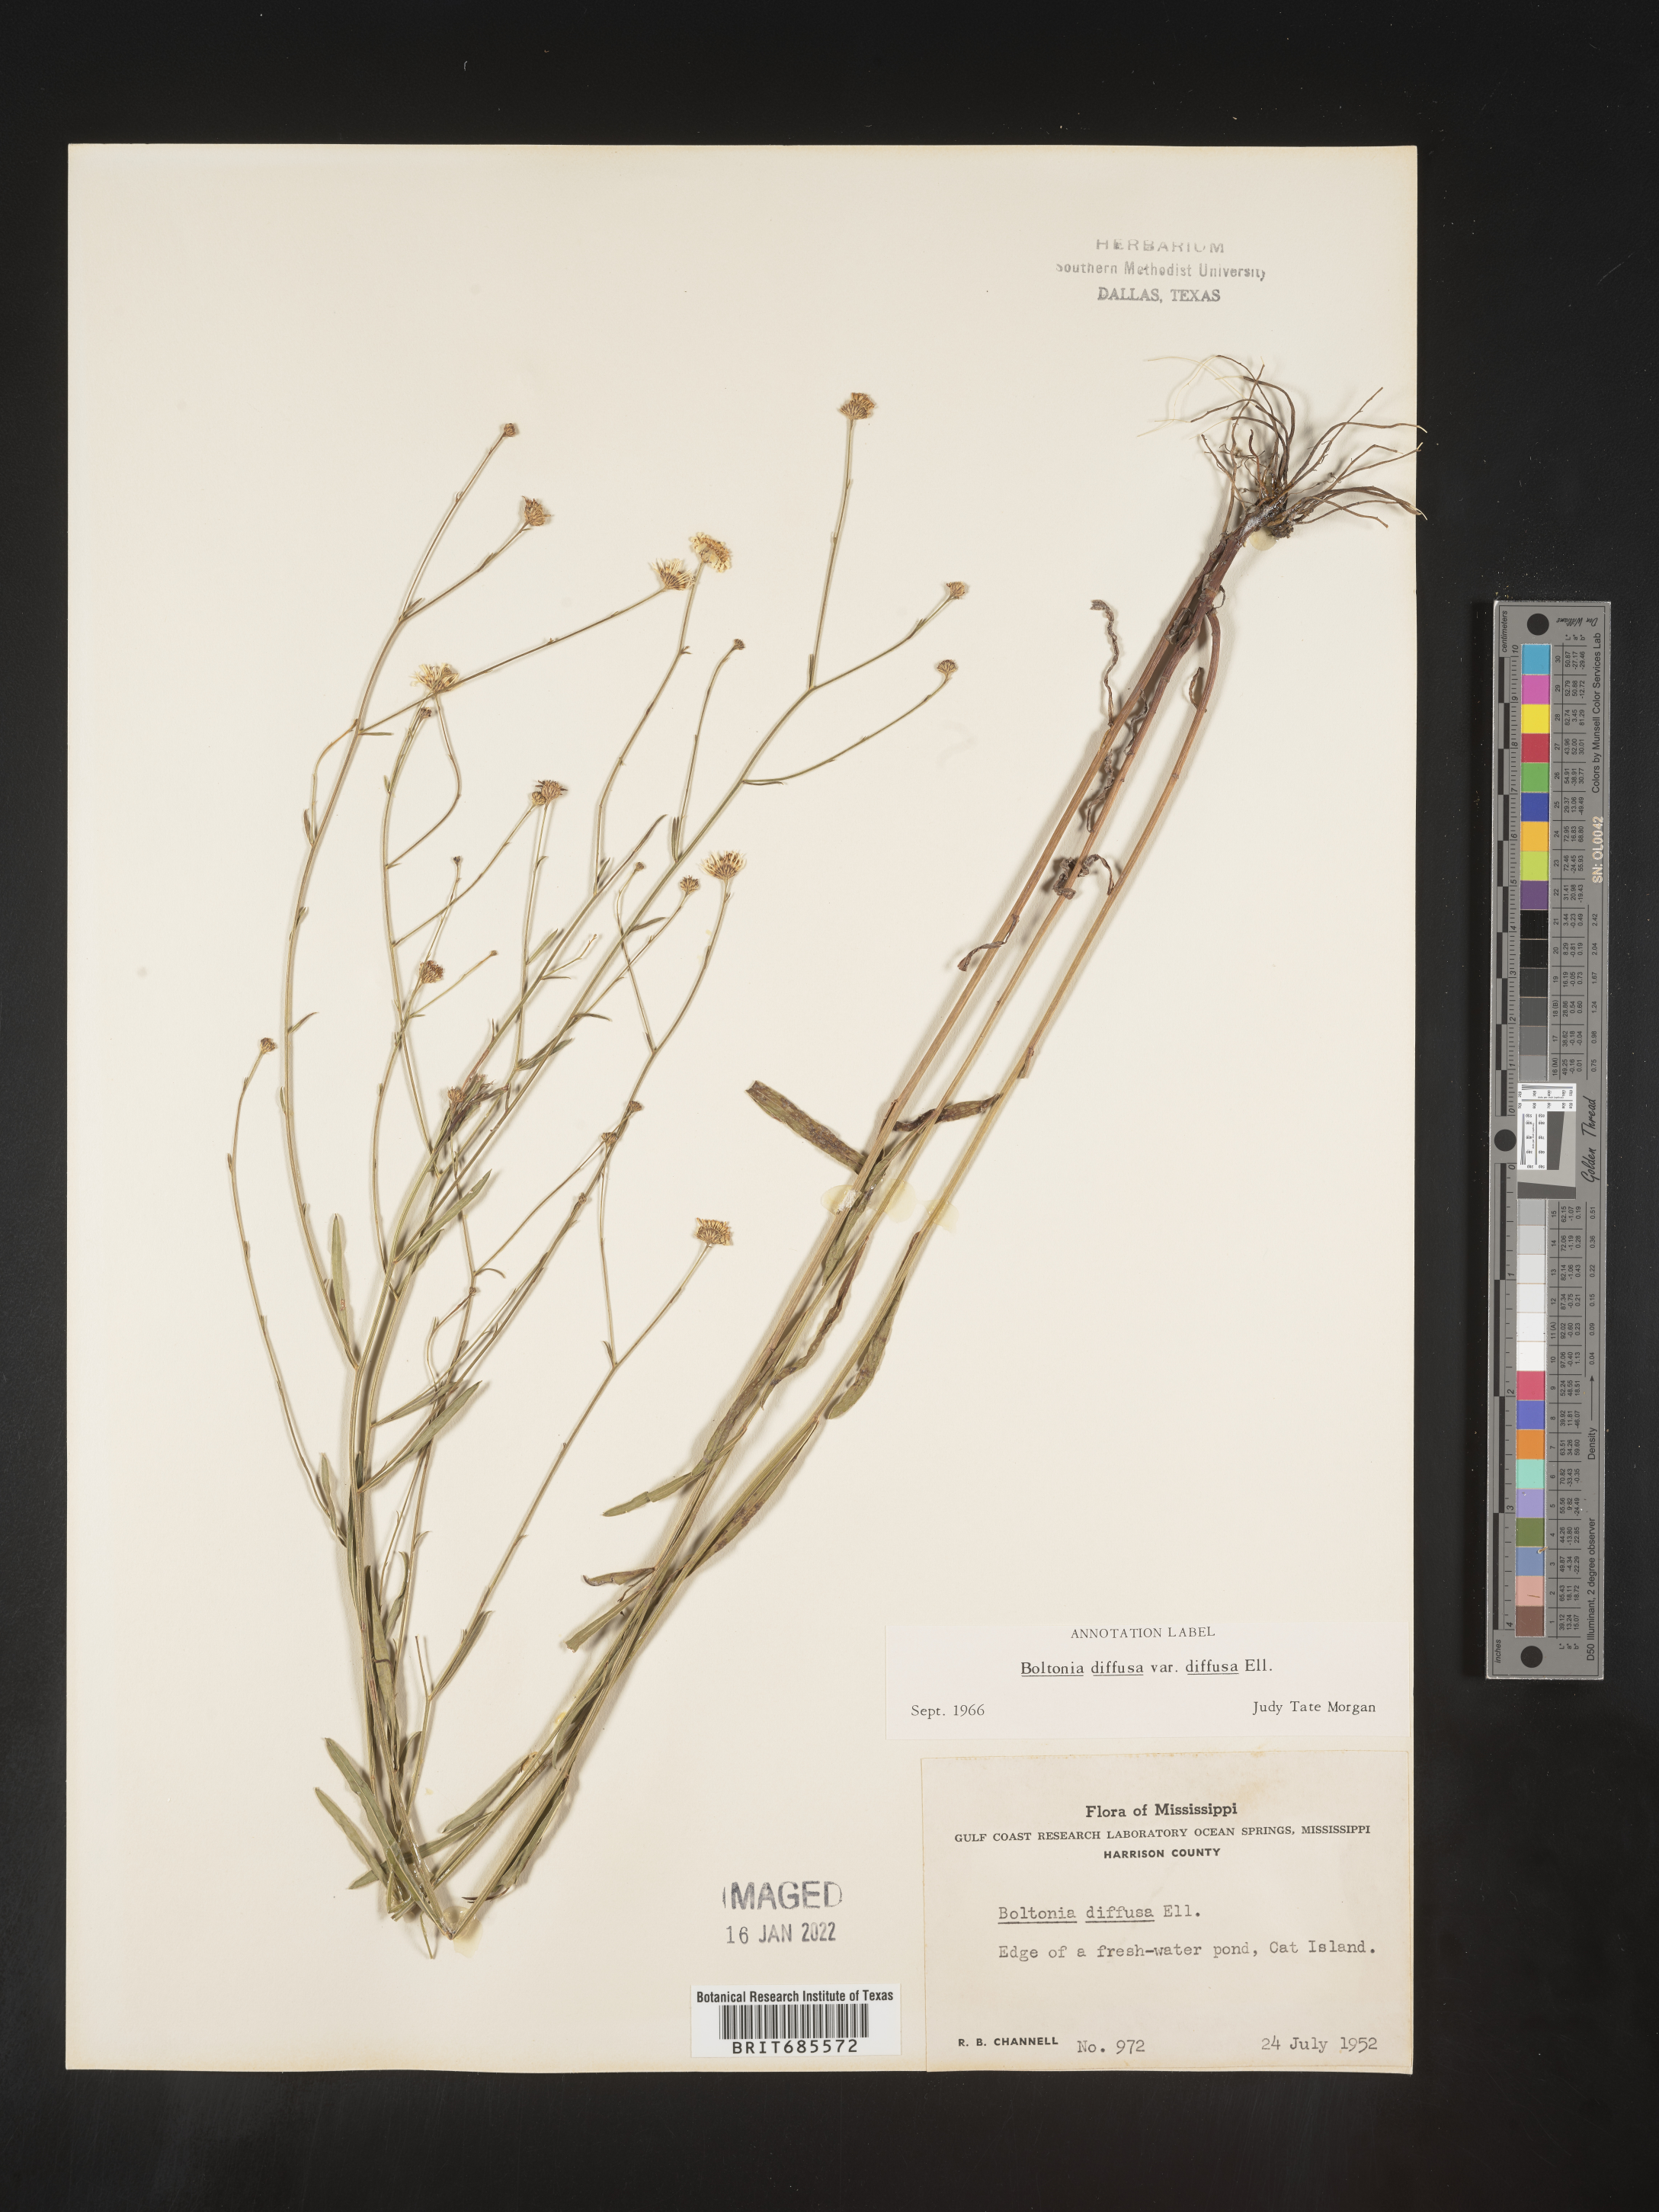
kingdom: Plantae
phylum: Tracheophyta
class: Magnoliopsida
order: Asterales
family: Asteraceae
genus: Boltonia
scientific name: Boltonia diffusa
